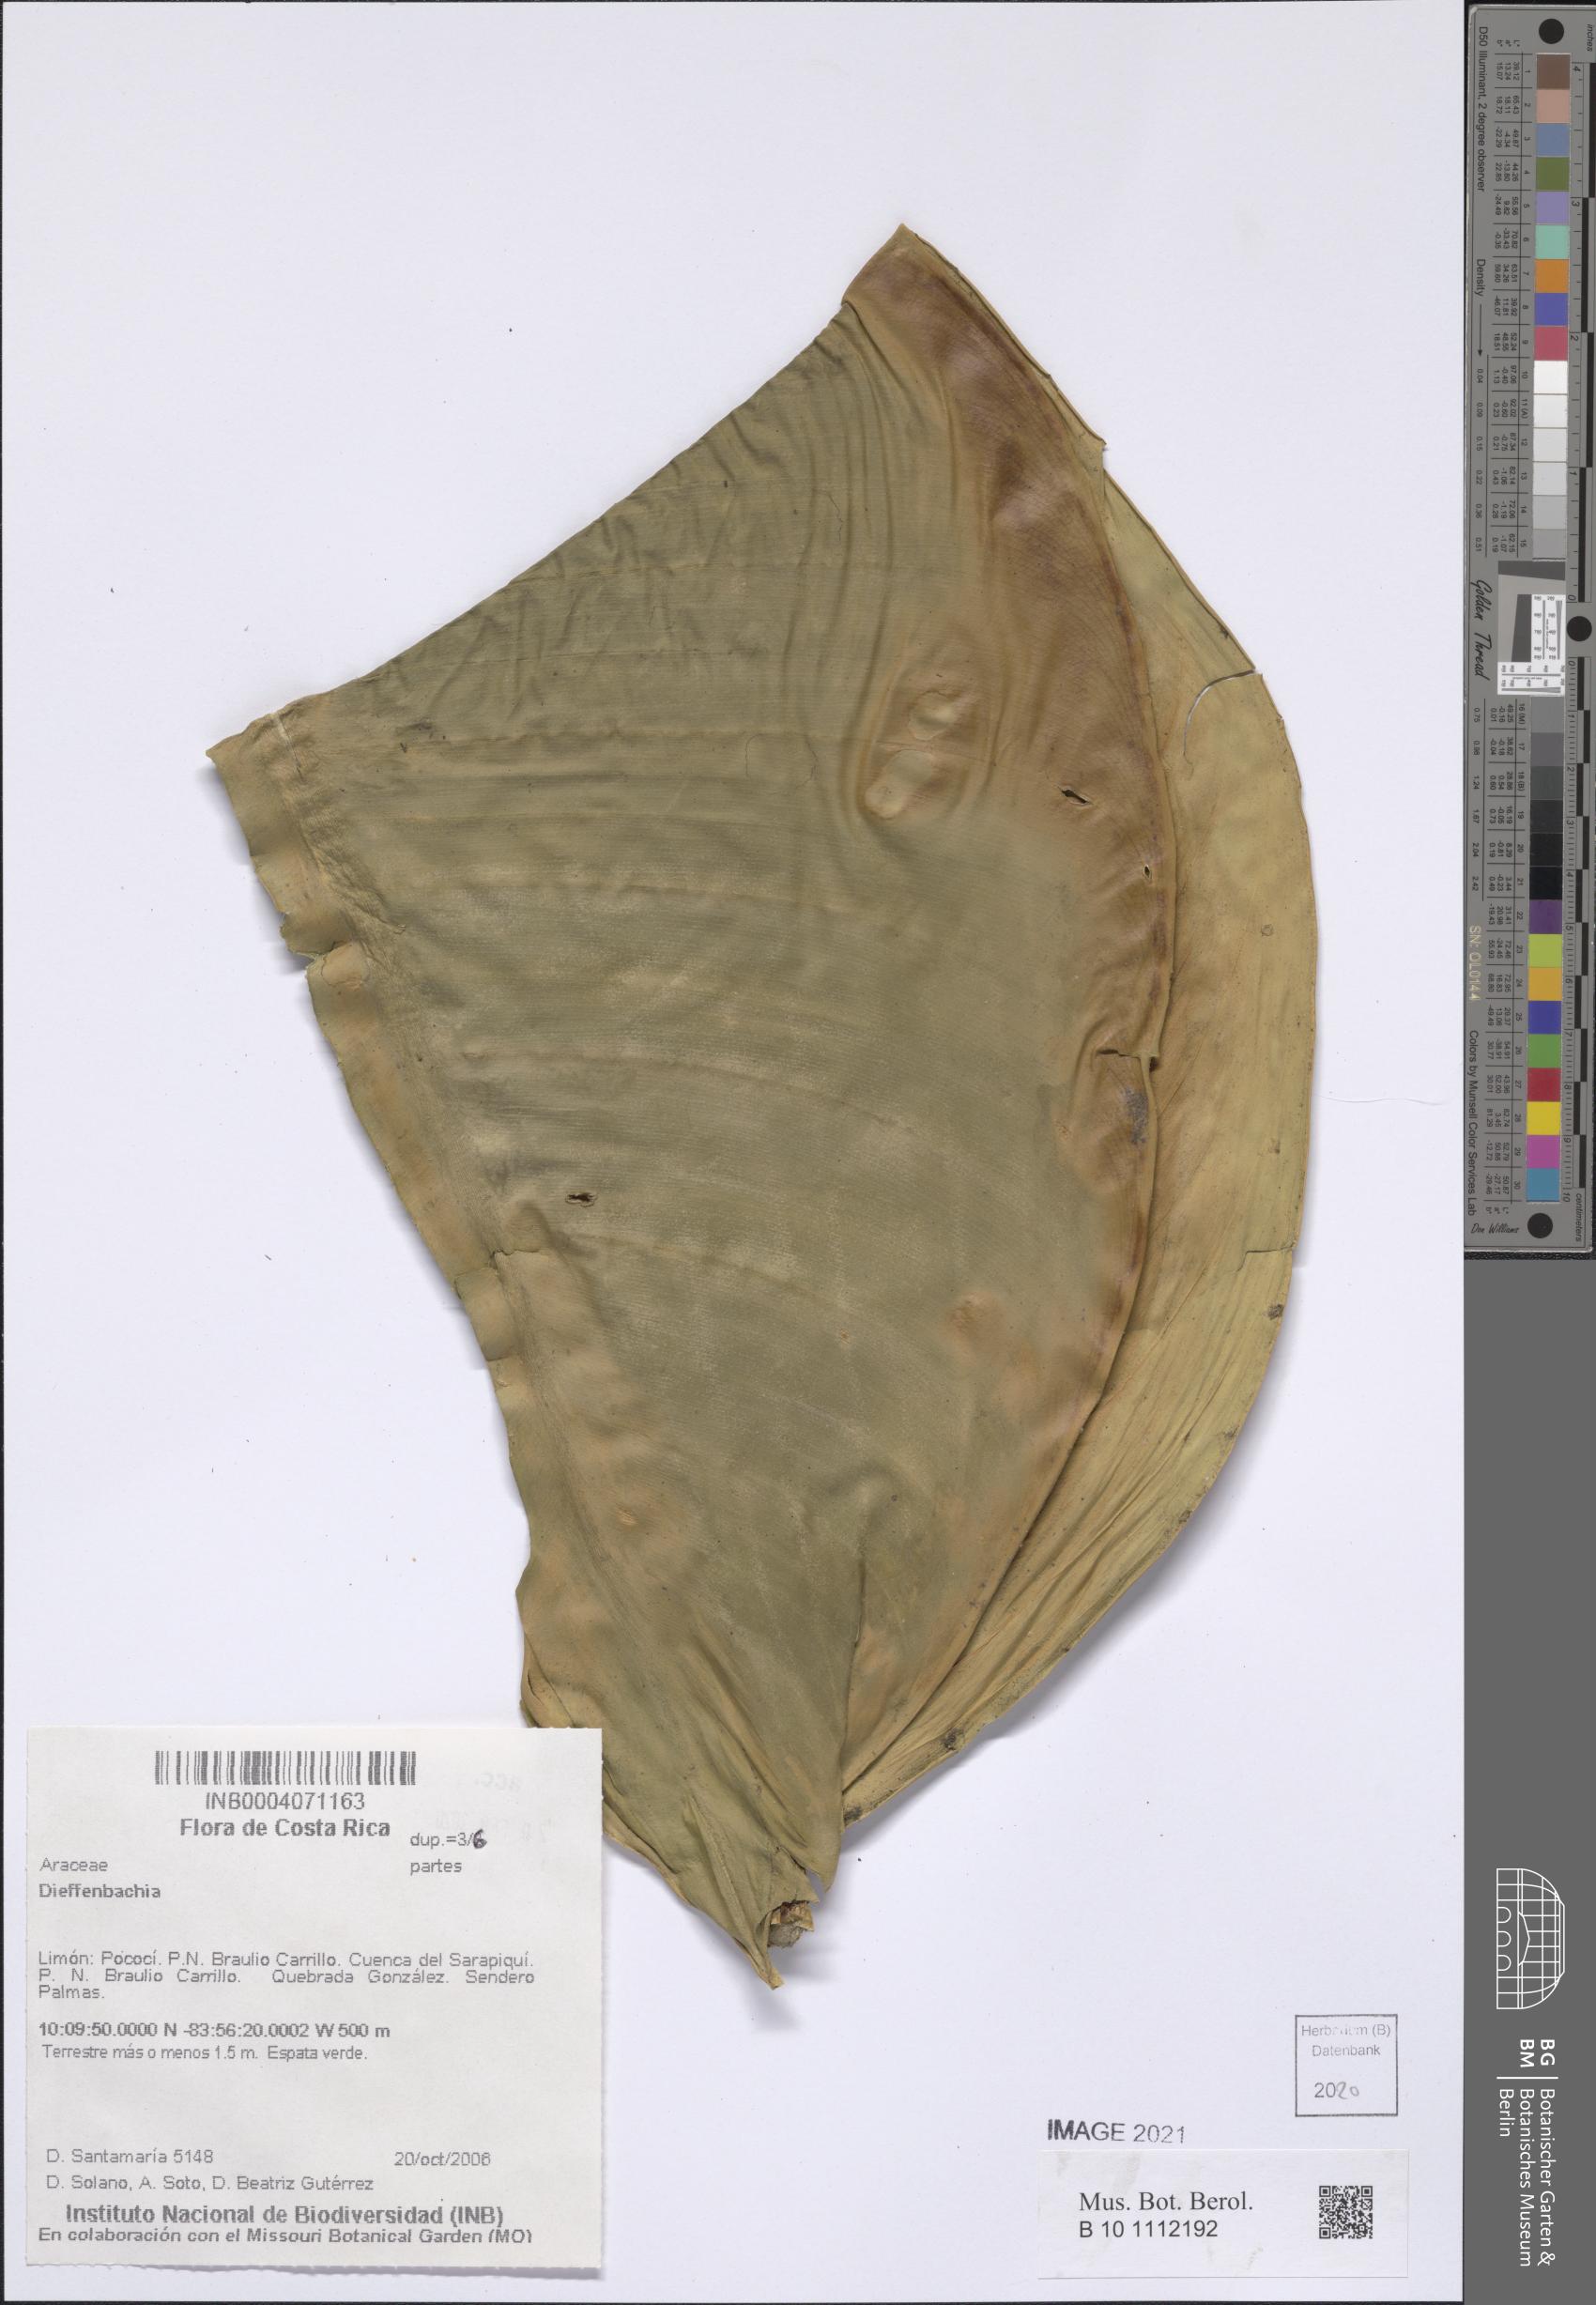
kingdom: Plantae
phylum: Tracheophyta
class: Liliopsida
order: Alismatales
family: Araceae
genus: Dieffenbachia
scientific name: Dieffenbachia
